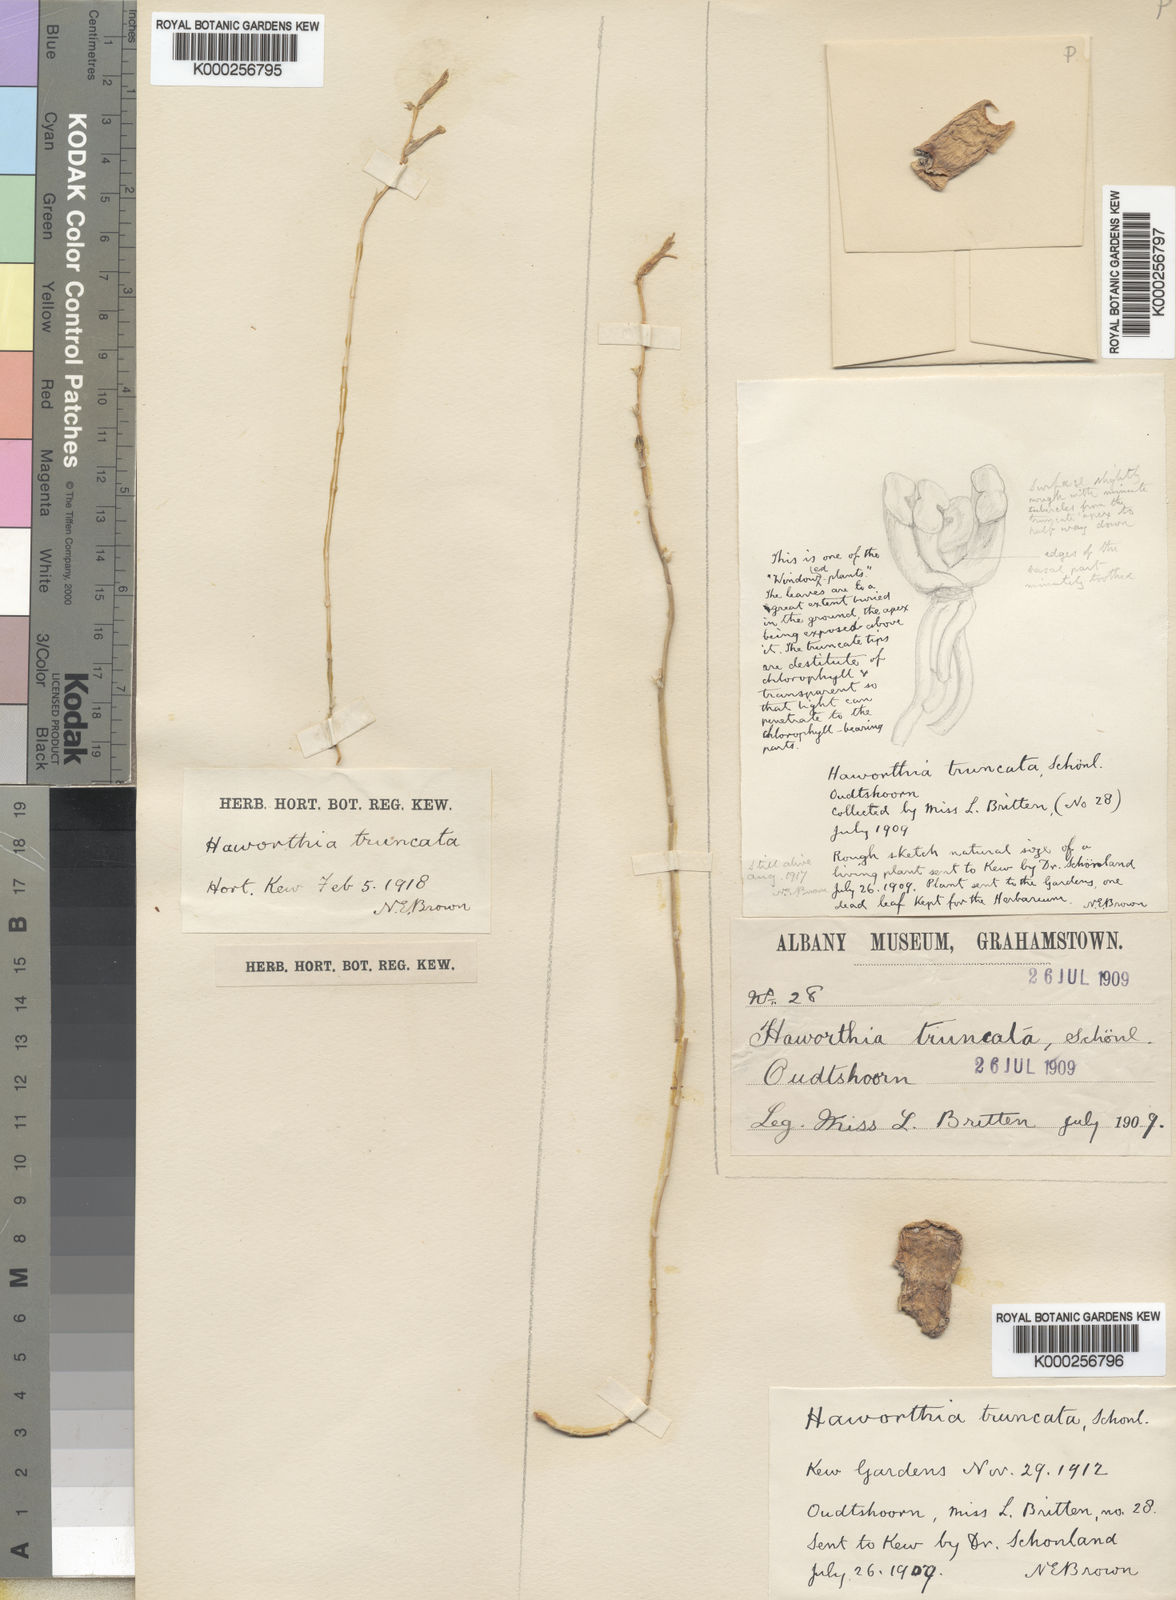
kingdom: Plantae
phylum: Tracheophyta
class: Liliopsida
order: Asparagales
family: Asphodelaceae
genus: Haworthia
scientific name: Haworthia
